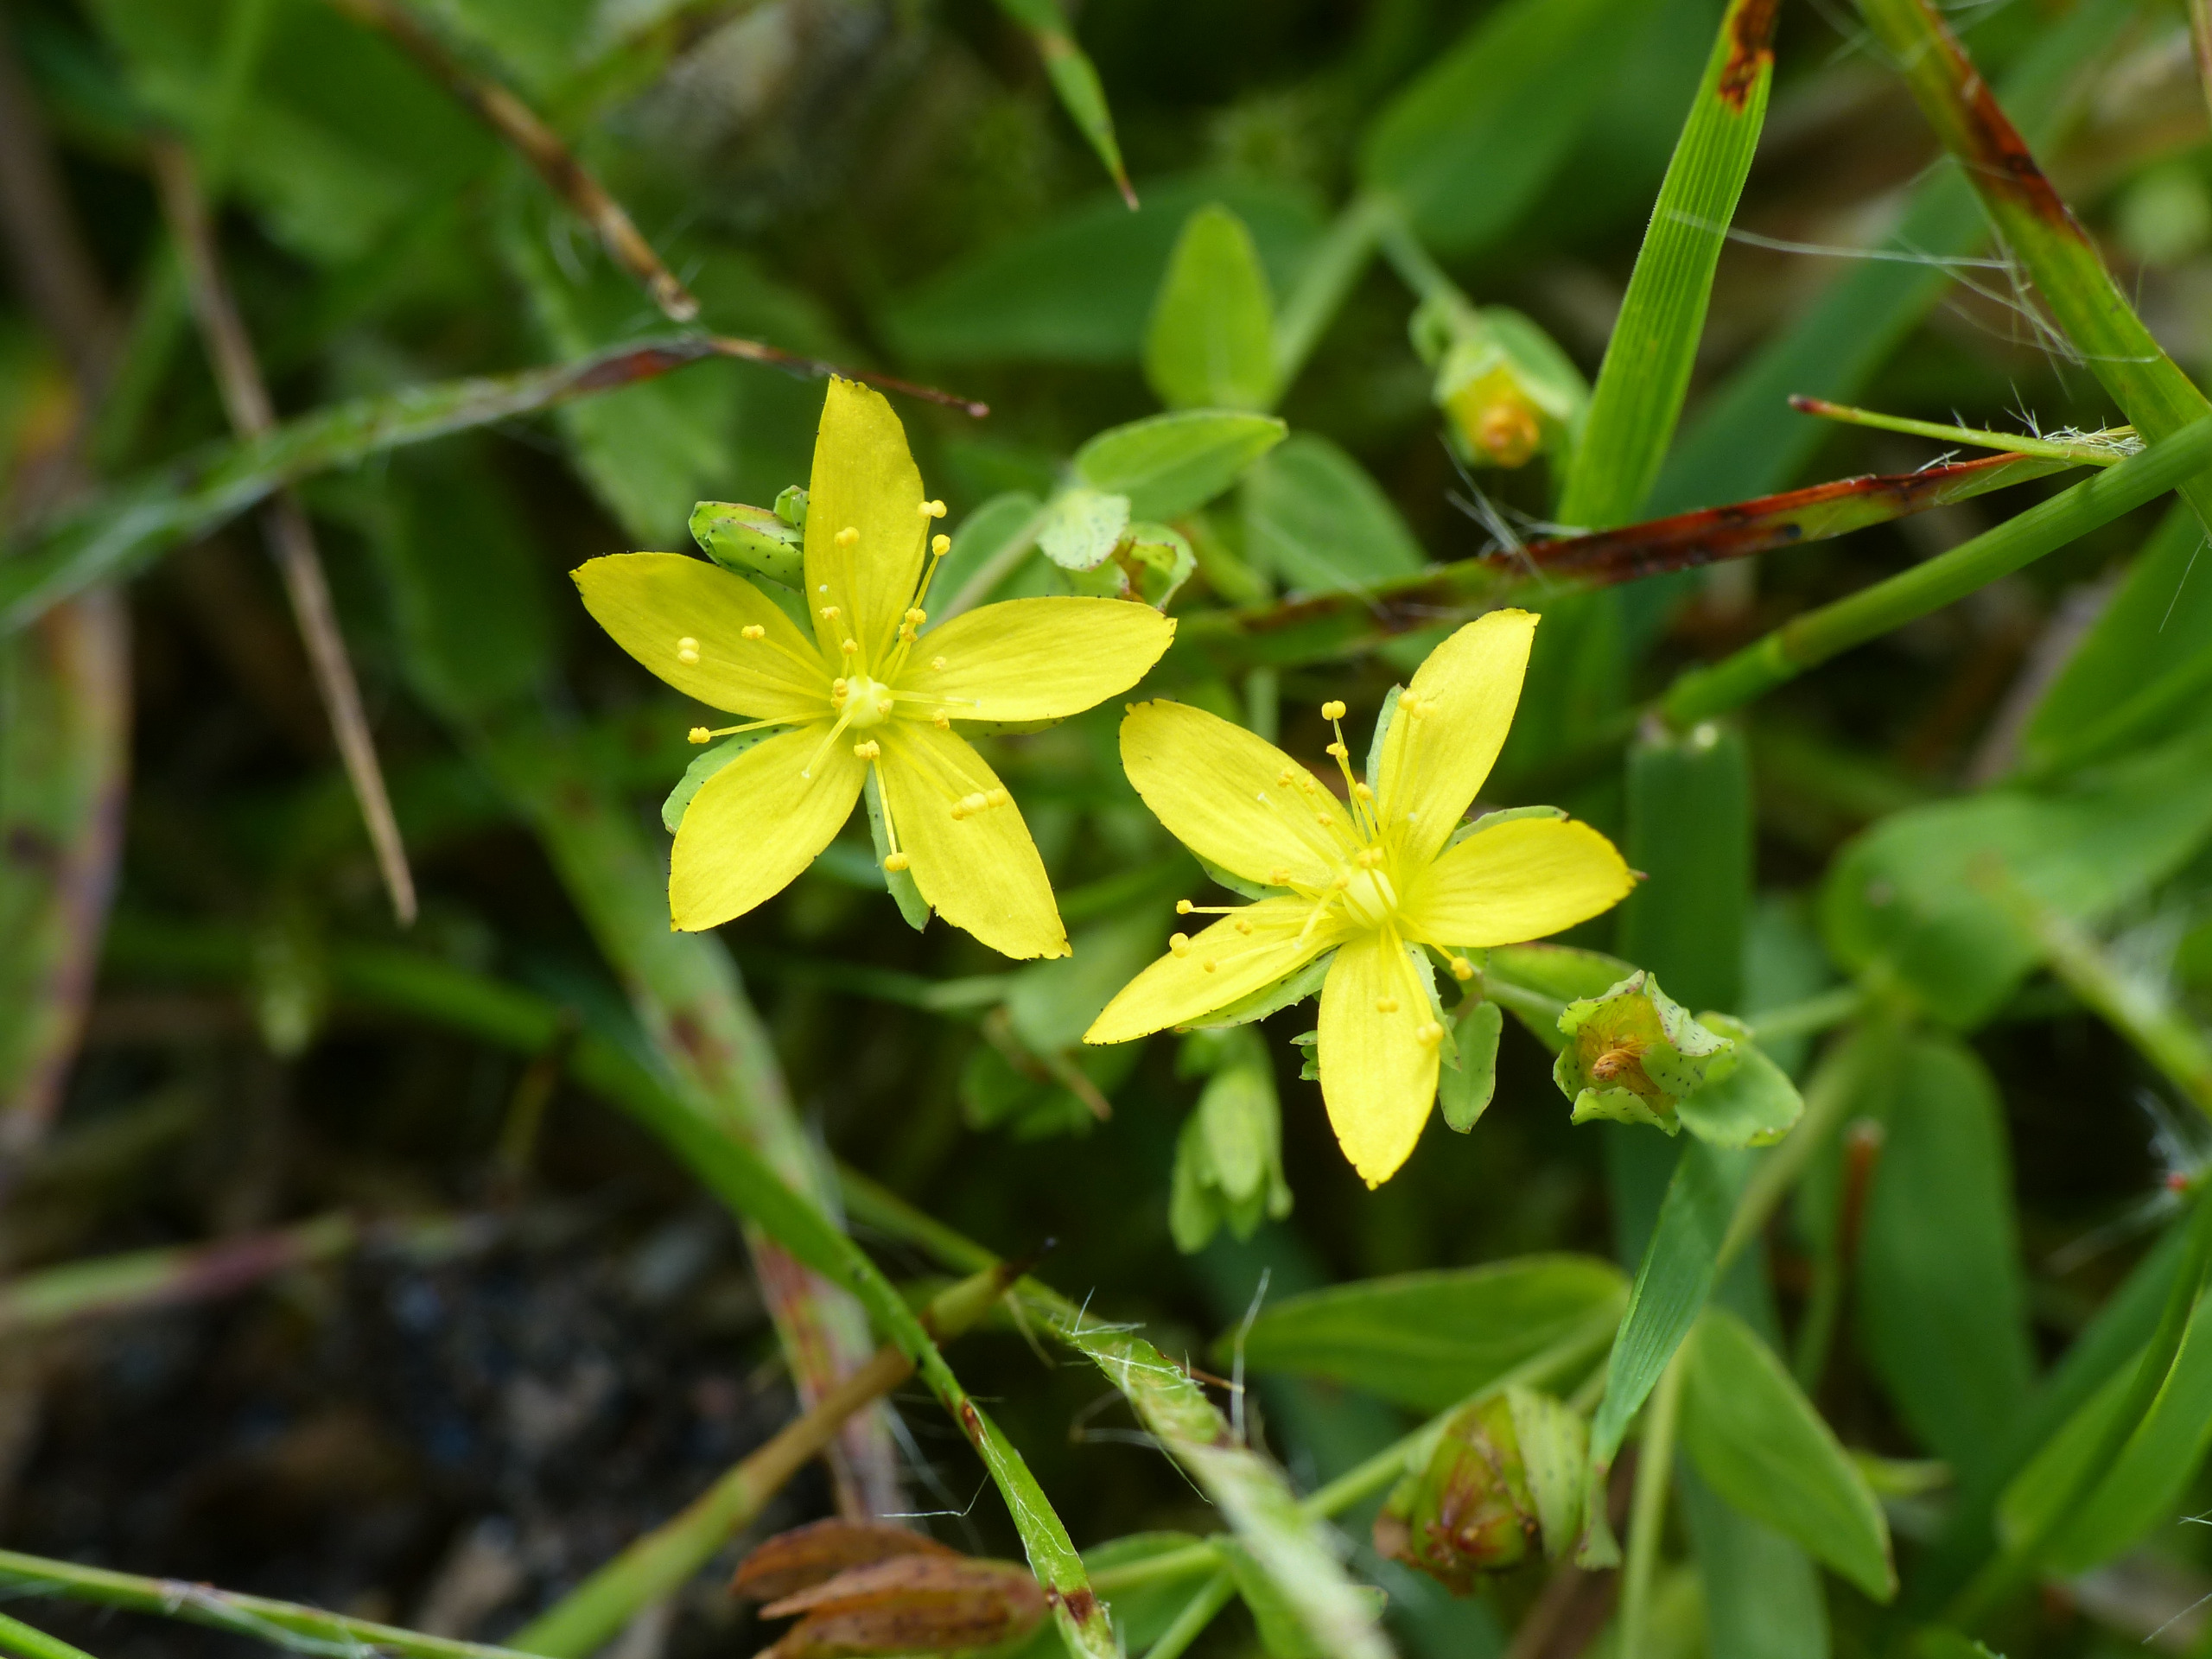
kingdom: Plantae
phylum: Tracheophyta
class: Magnoliopsida
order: Malpighiales
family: Hypericaceae
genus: Hypericum
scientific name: Hypericum humifusum
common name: Dværg-perikon
